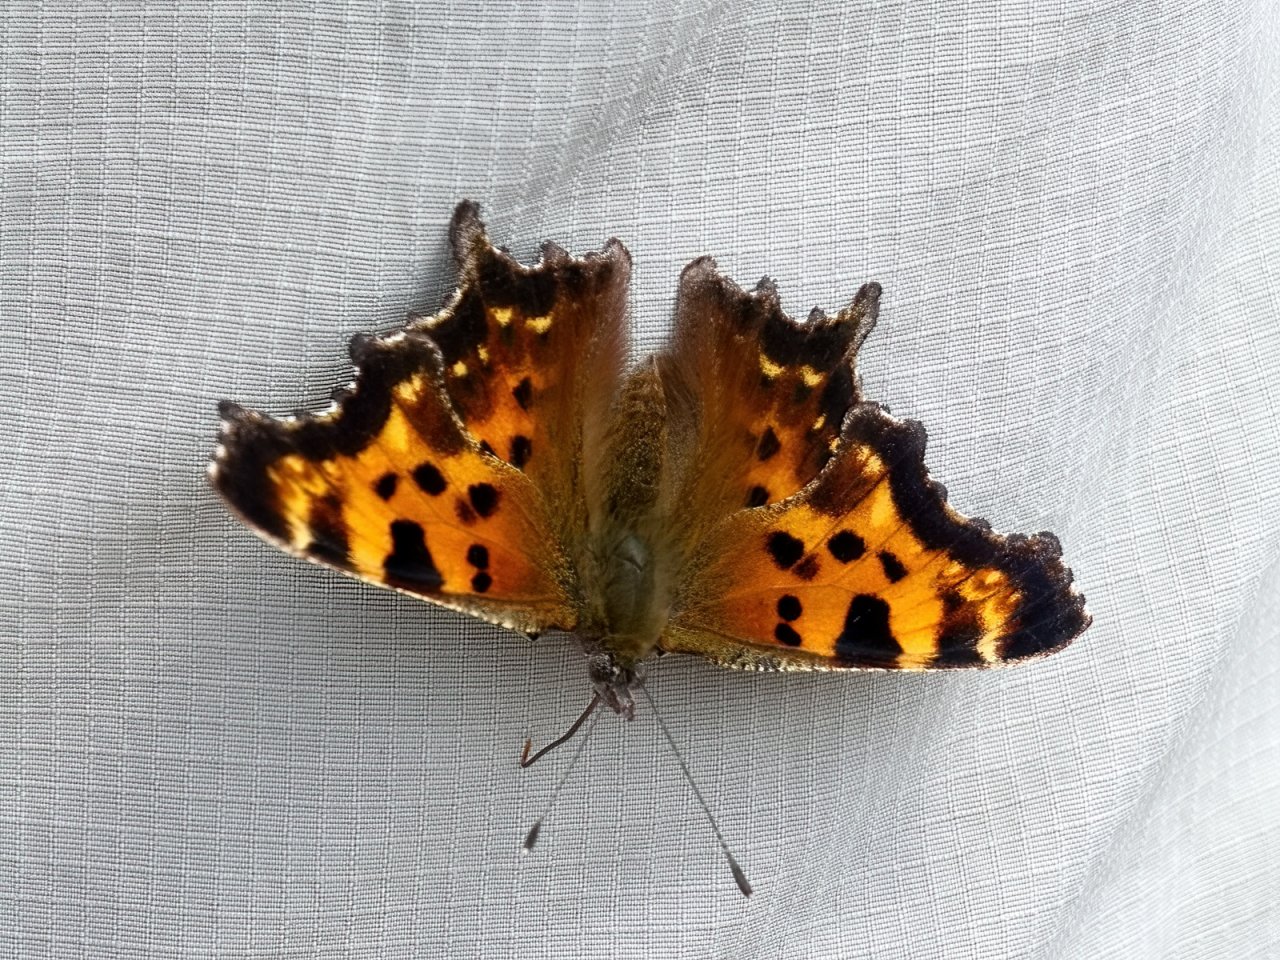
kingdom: Animalia
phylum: Arthropoda
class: Insecta
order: Lepidoptera
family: Nymphalidae
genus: Polygonia
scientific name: Polygonia faunus
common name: Green Comma
